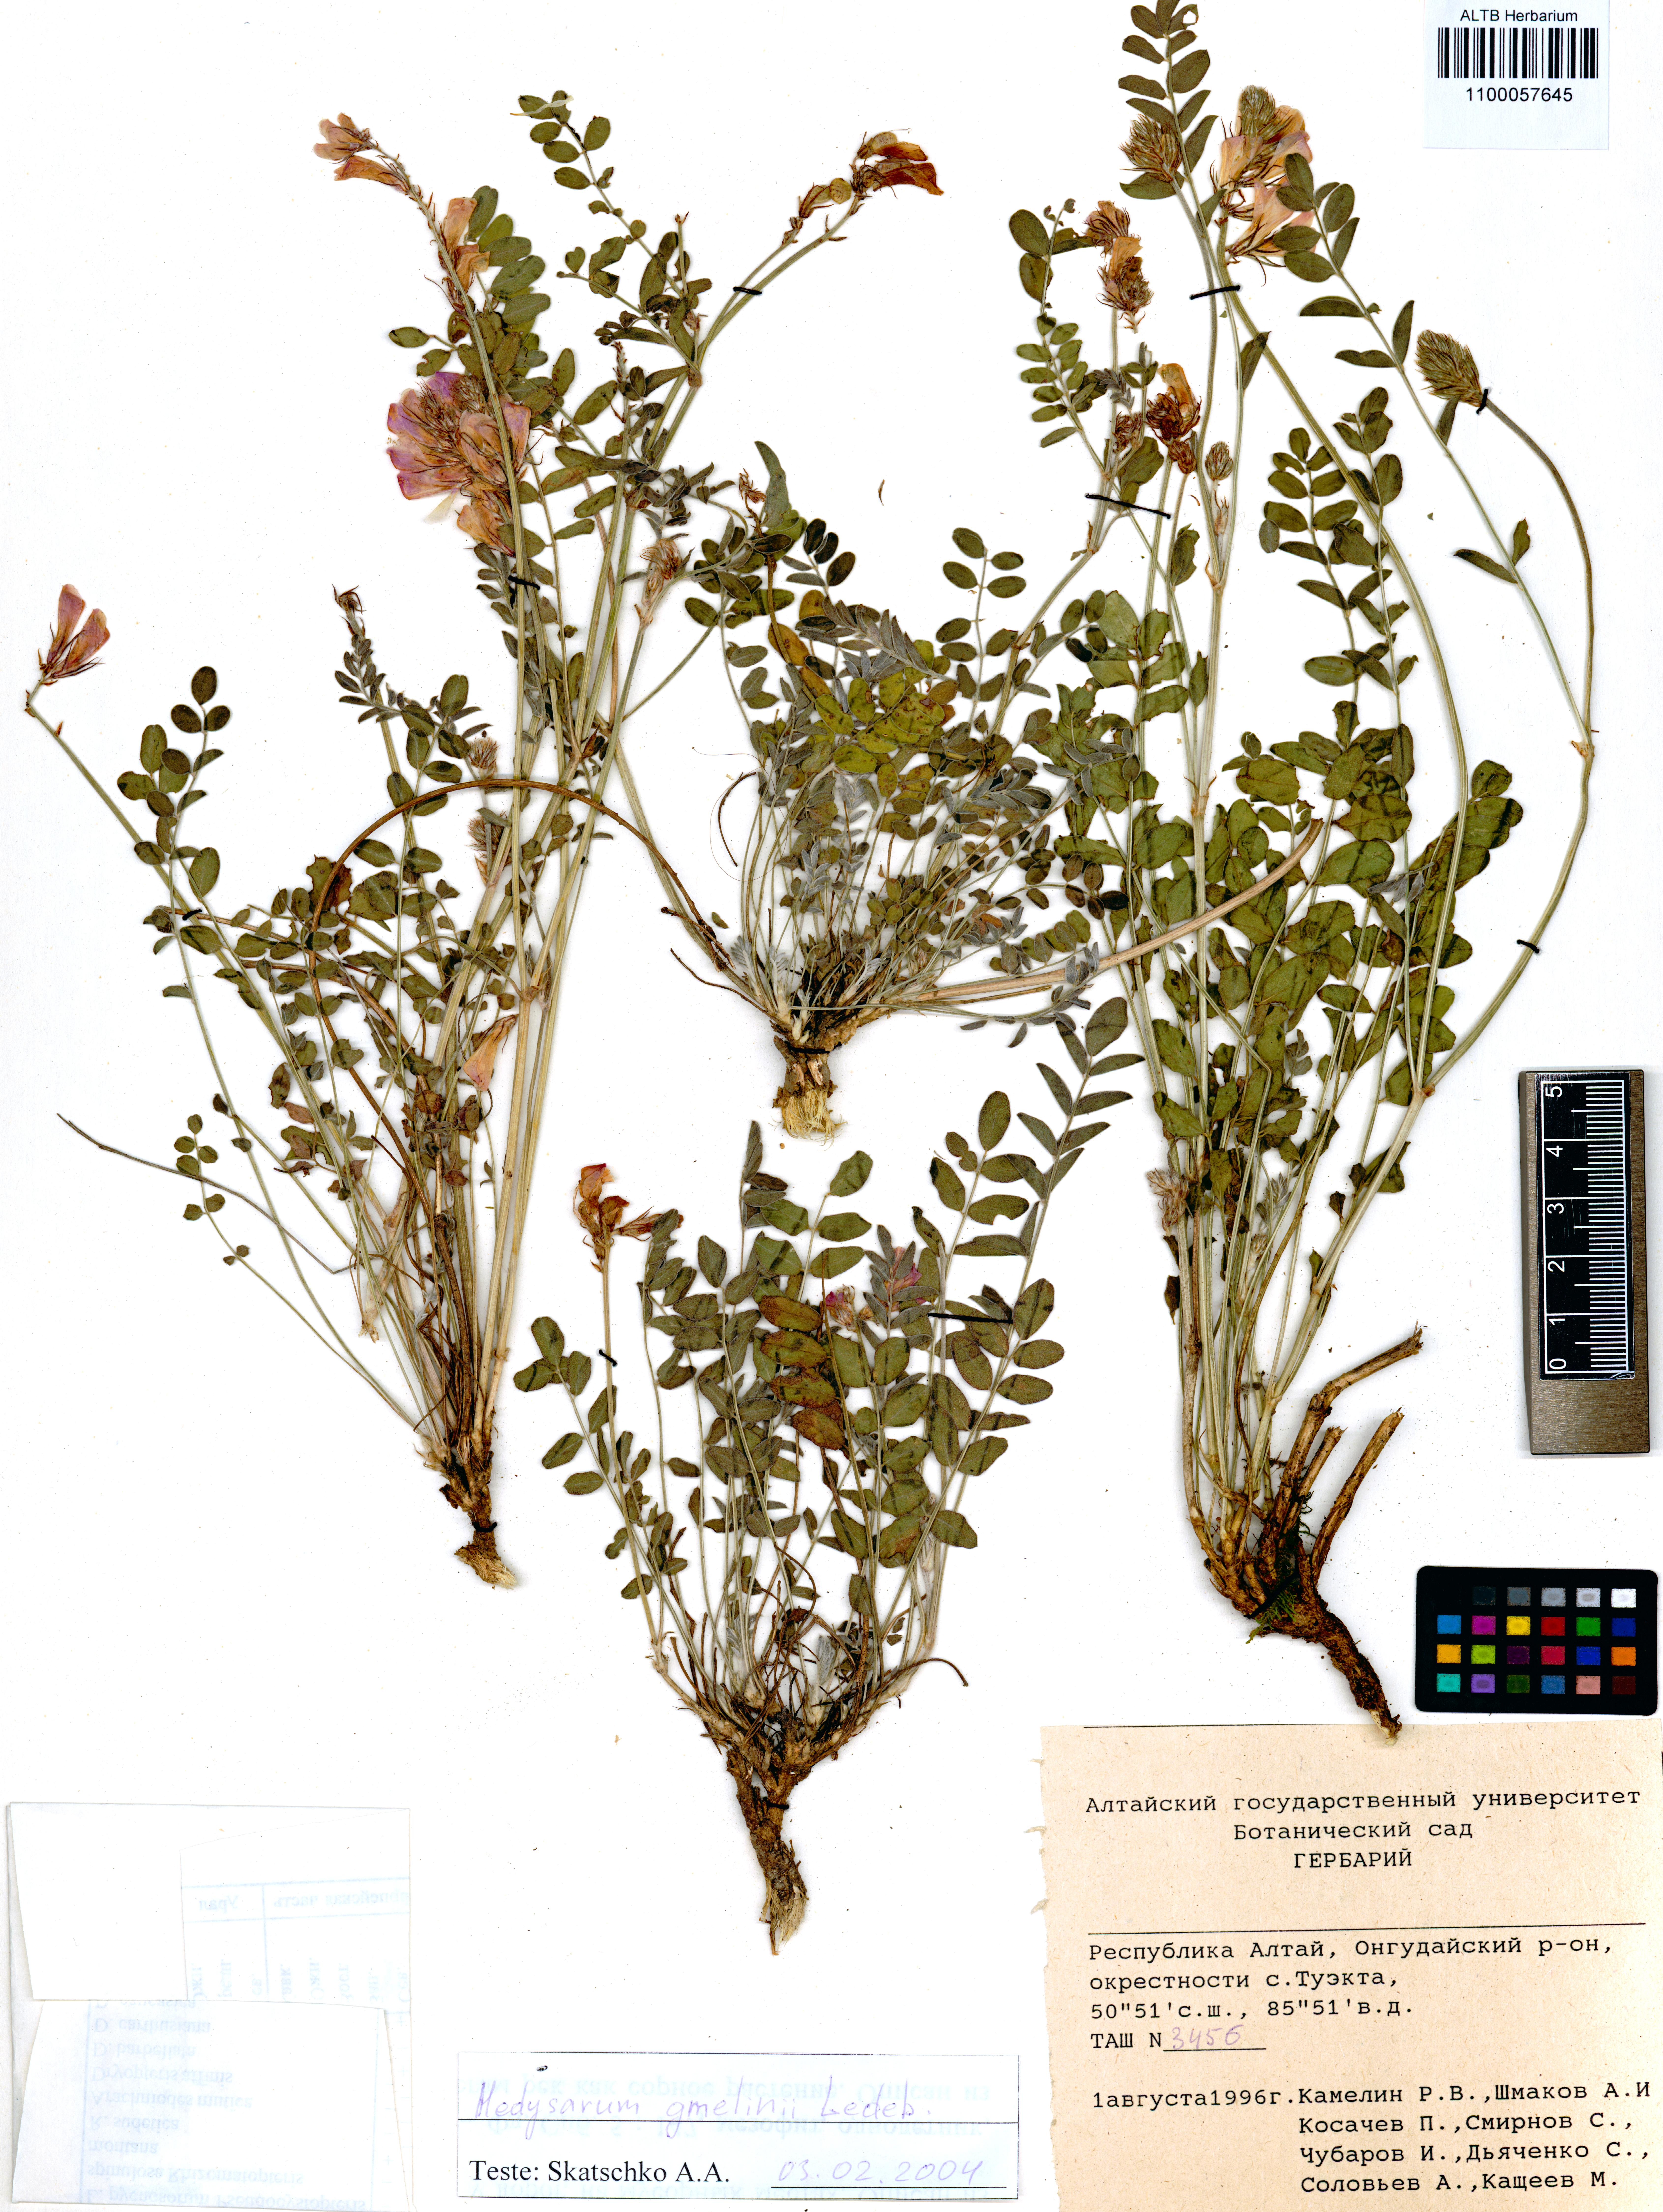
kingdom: Plantae
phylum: Tracheophyta
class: Magnoliopsida
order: Fabales
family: Fabaceae
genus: Hedysarum
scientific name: Hedysarum gmelinii
